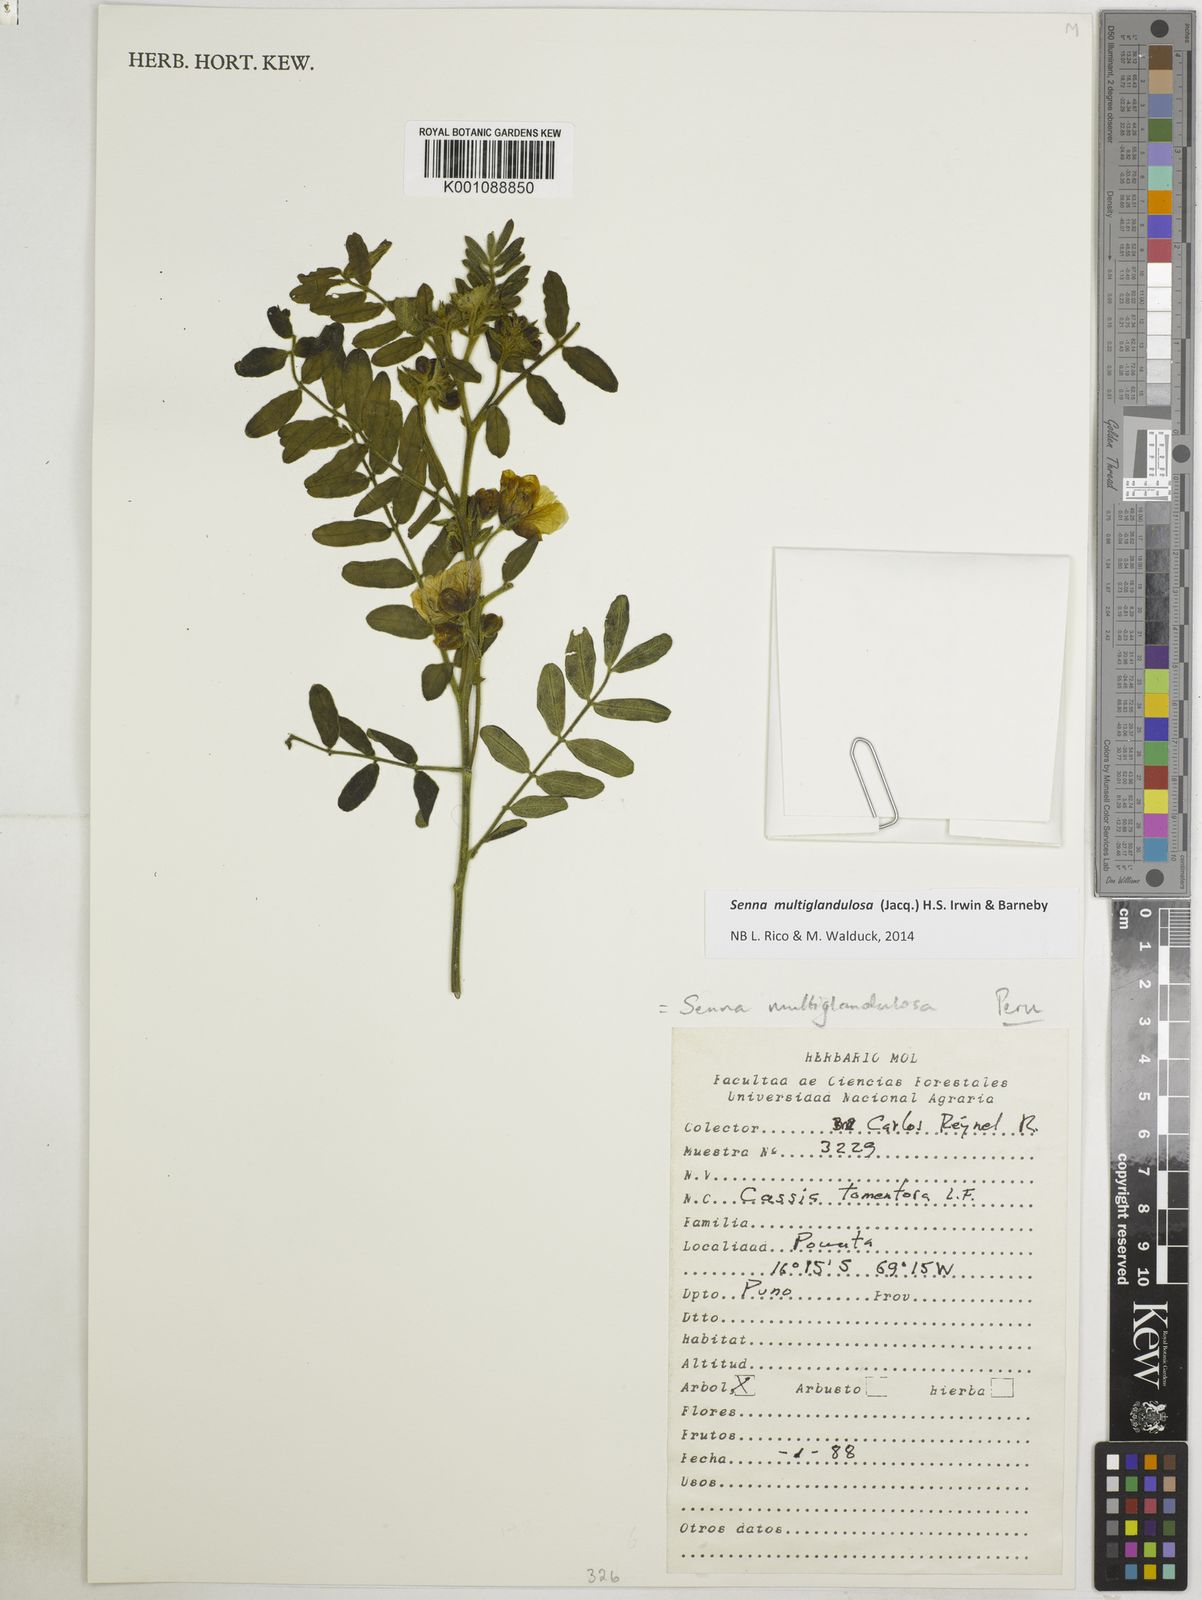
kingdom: Plantae
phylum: Tracheophyta
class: Magnoliopsida
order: Fabales
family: Fabaceae
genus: Senna
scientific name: Senna multiglandulosa
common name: Glandular senna
